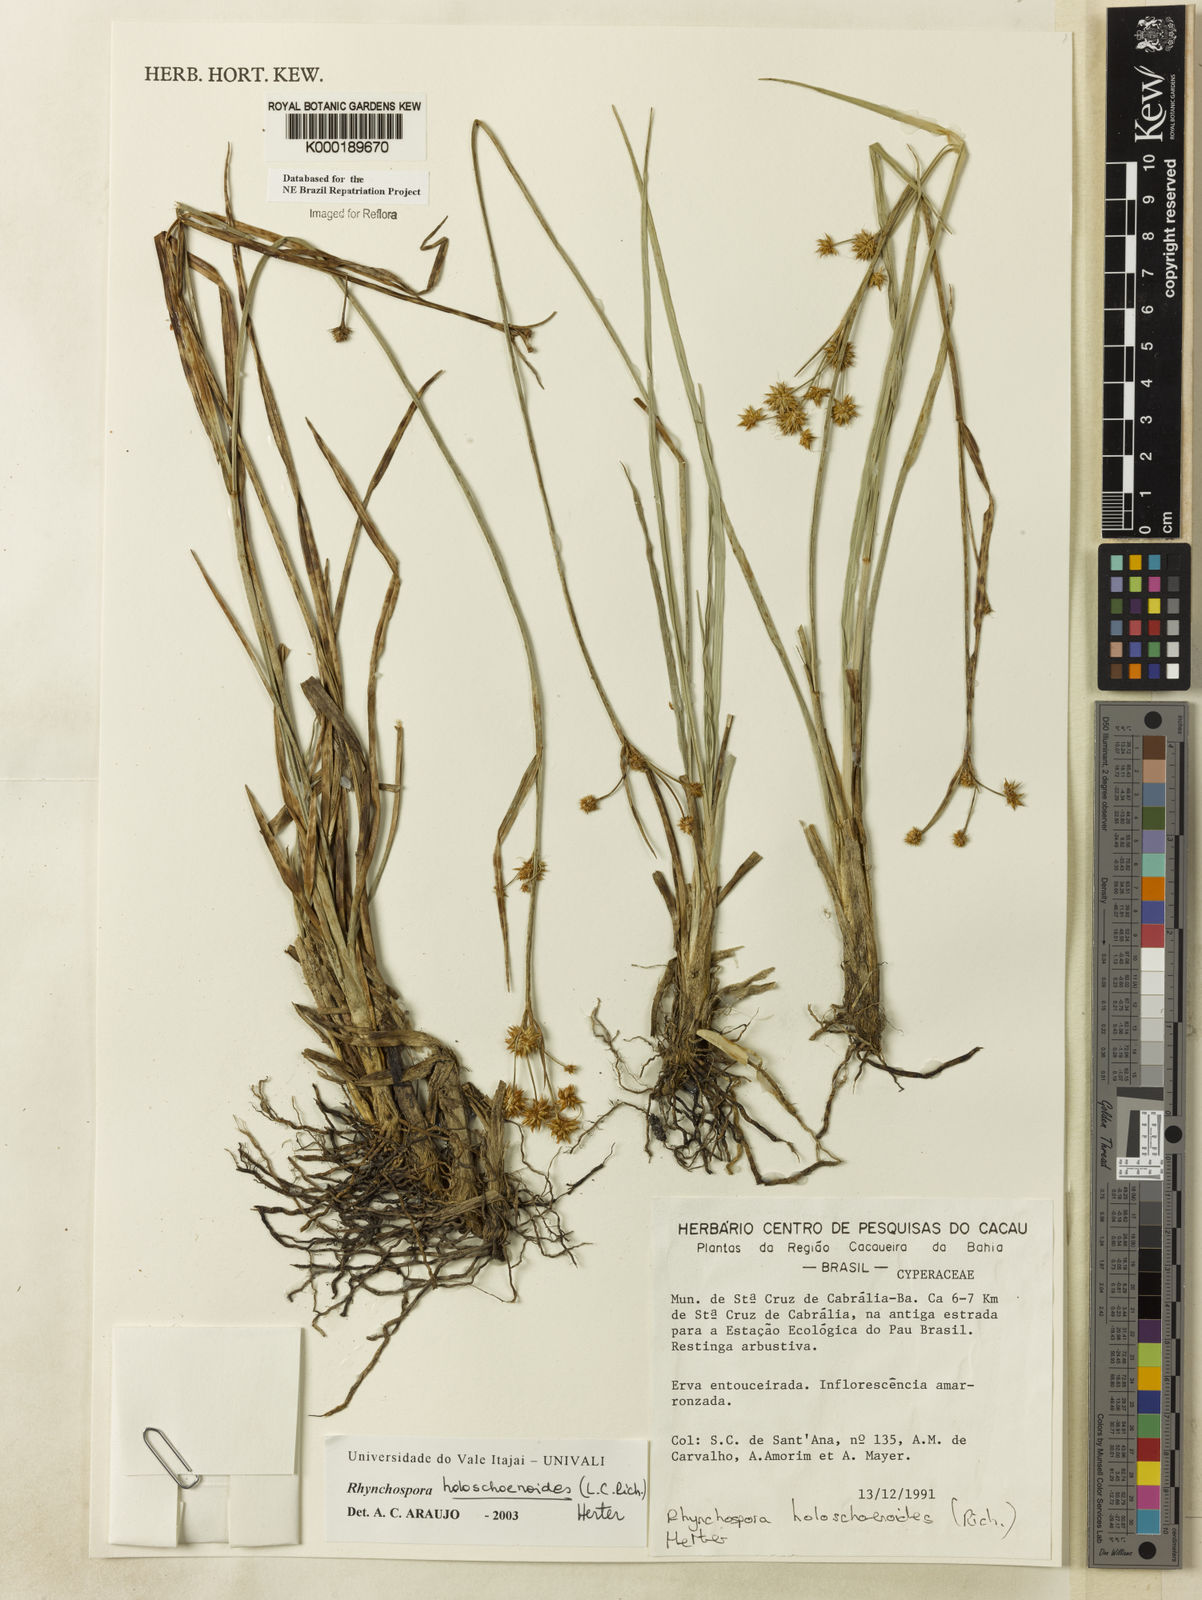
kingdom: Plantae
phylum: Tracheophyta
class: Liliopsida
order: Poales
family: Cyperaceae
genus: Rhynchospora
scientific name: Rhynchospora holoschoenoides
